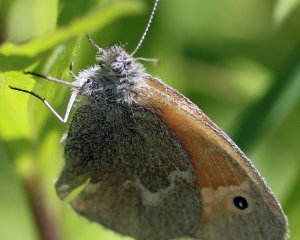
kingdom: Animalia
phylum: Arthropoda
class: Insecta
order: Lepidoptera
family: Nymphalidae
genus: Coenonympha
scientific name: Coenonympha tullia
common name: Large Heath
